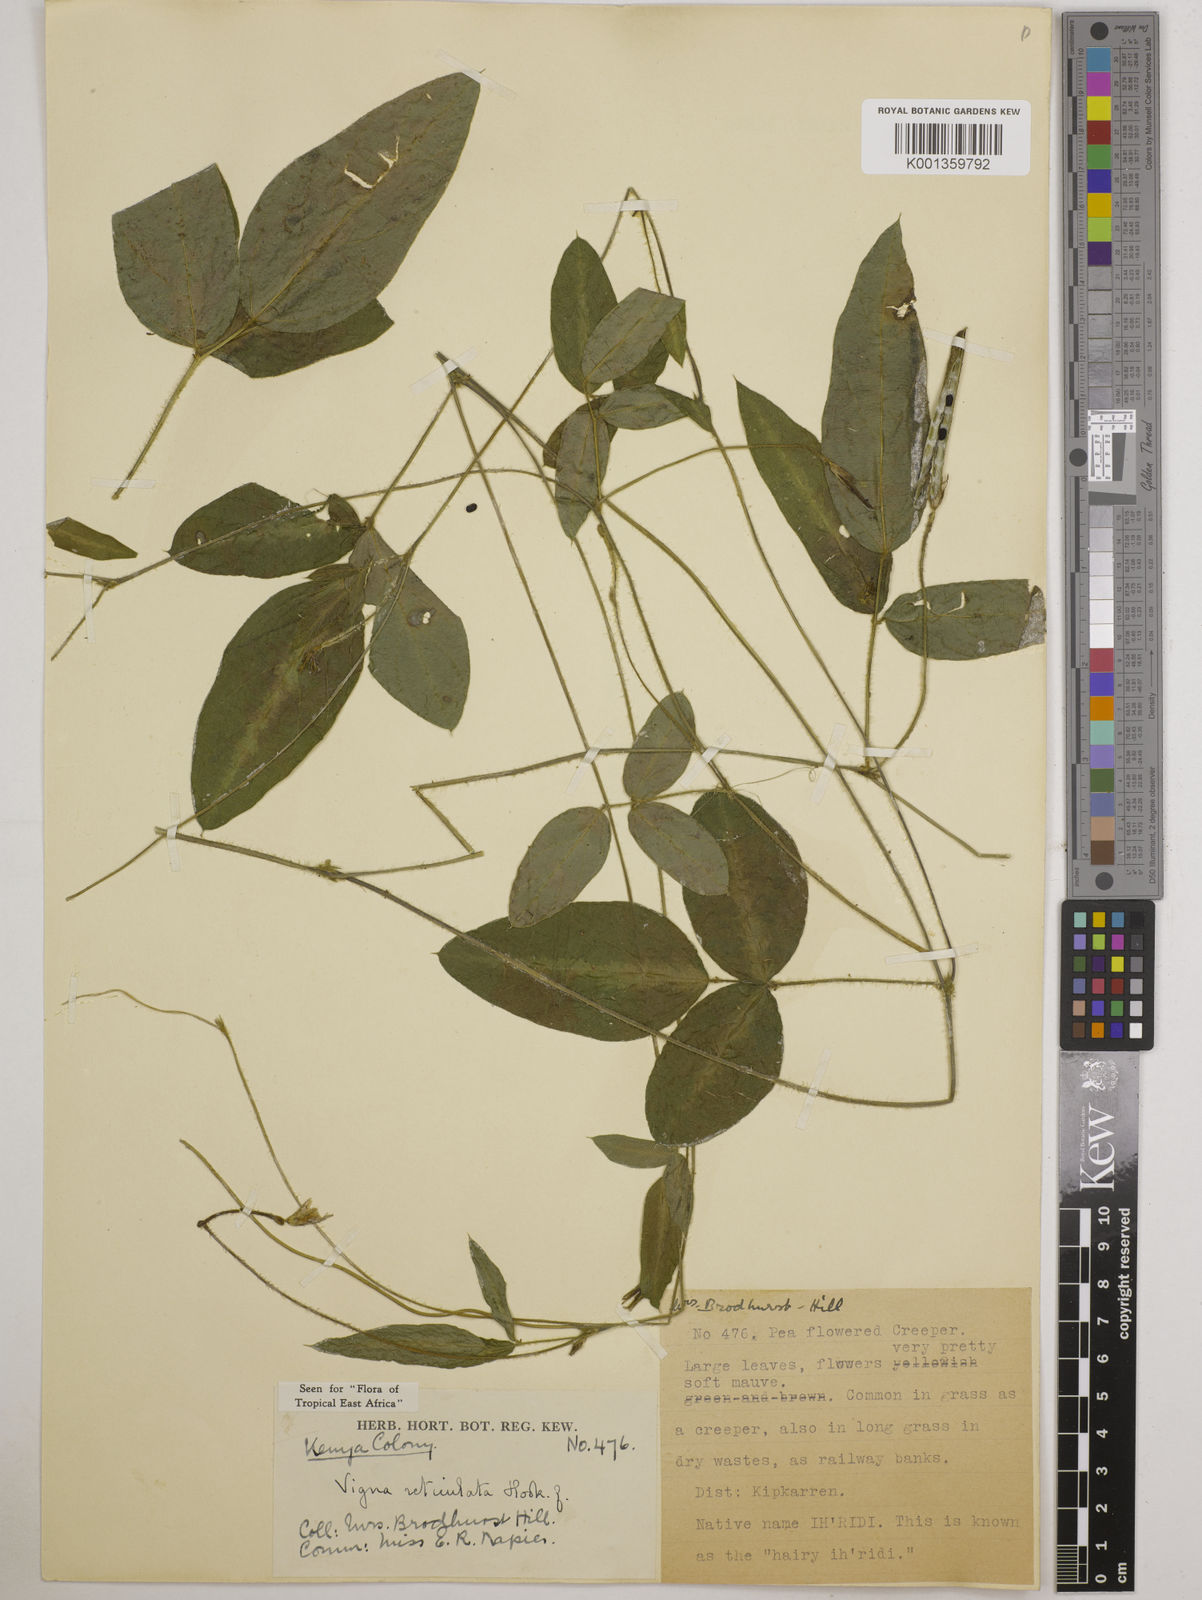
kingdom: Plantae
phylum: Tracheophyta
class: Magnoliopsida
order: Fabales
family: Fabaceae
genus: Vigna
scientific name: Vigna reticulata
